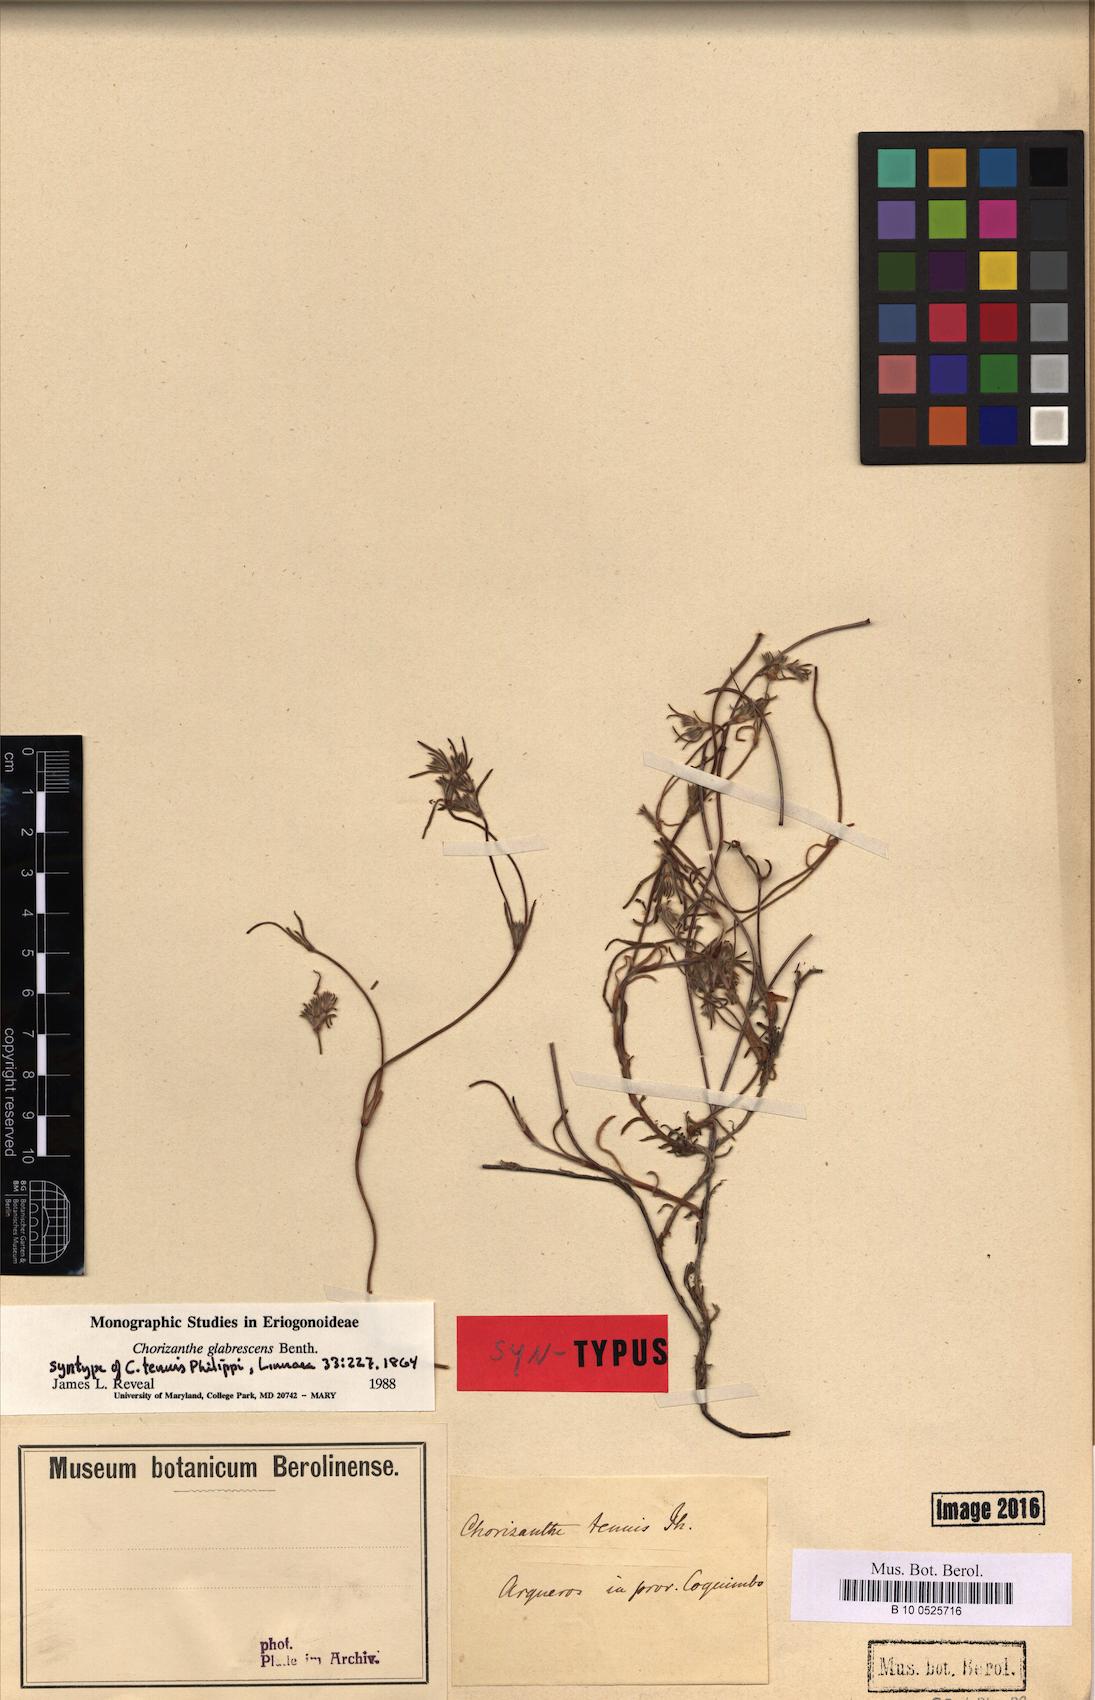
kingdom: Plantae
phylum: Tracheophyta
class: Magnoliopsida
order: Caryophyllales
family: Polygonaceae
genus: Chorizanthe
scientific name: Chorizanthe glabrescens
